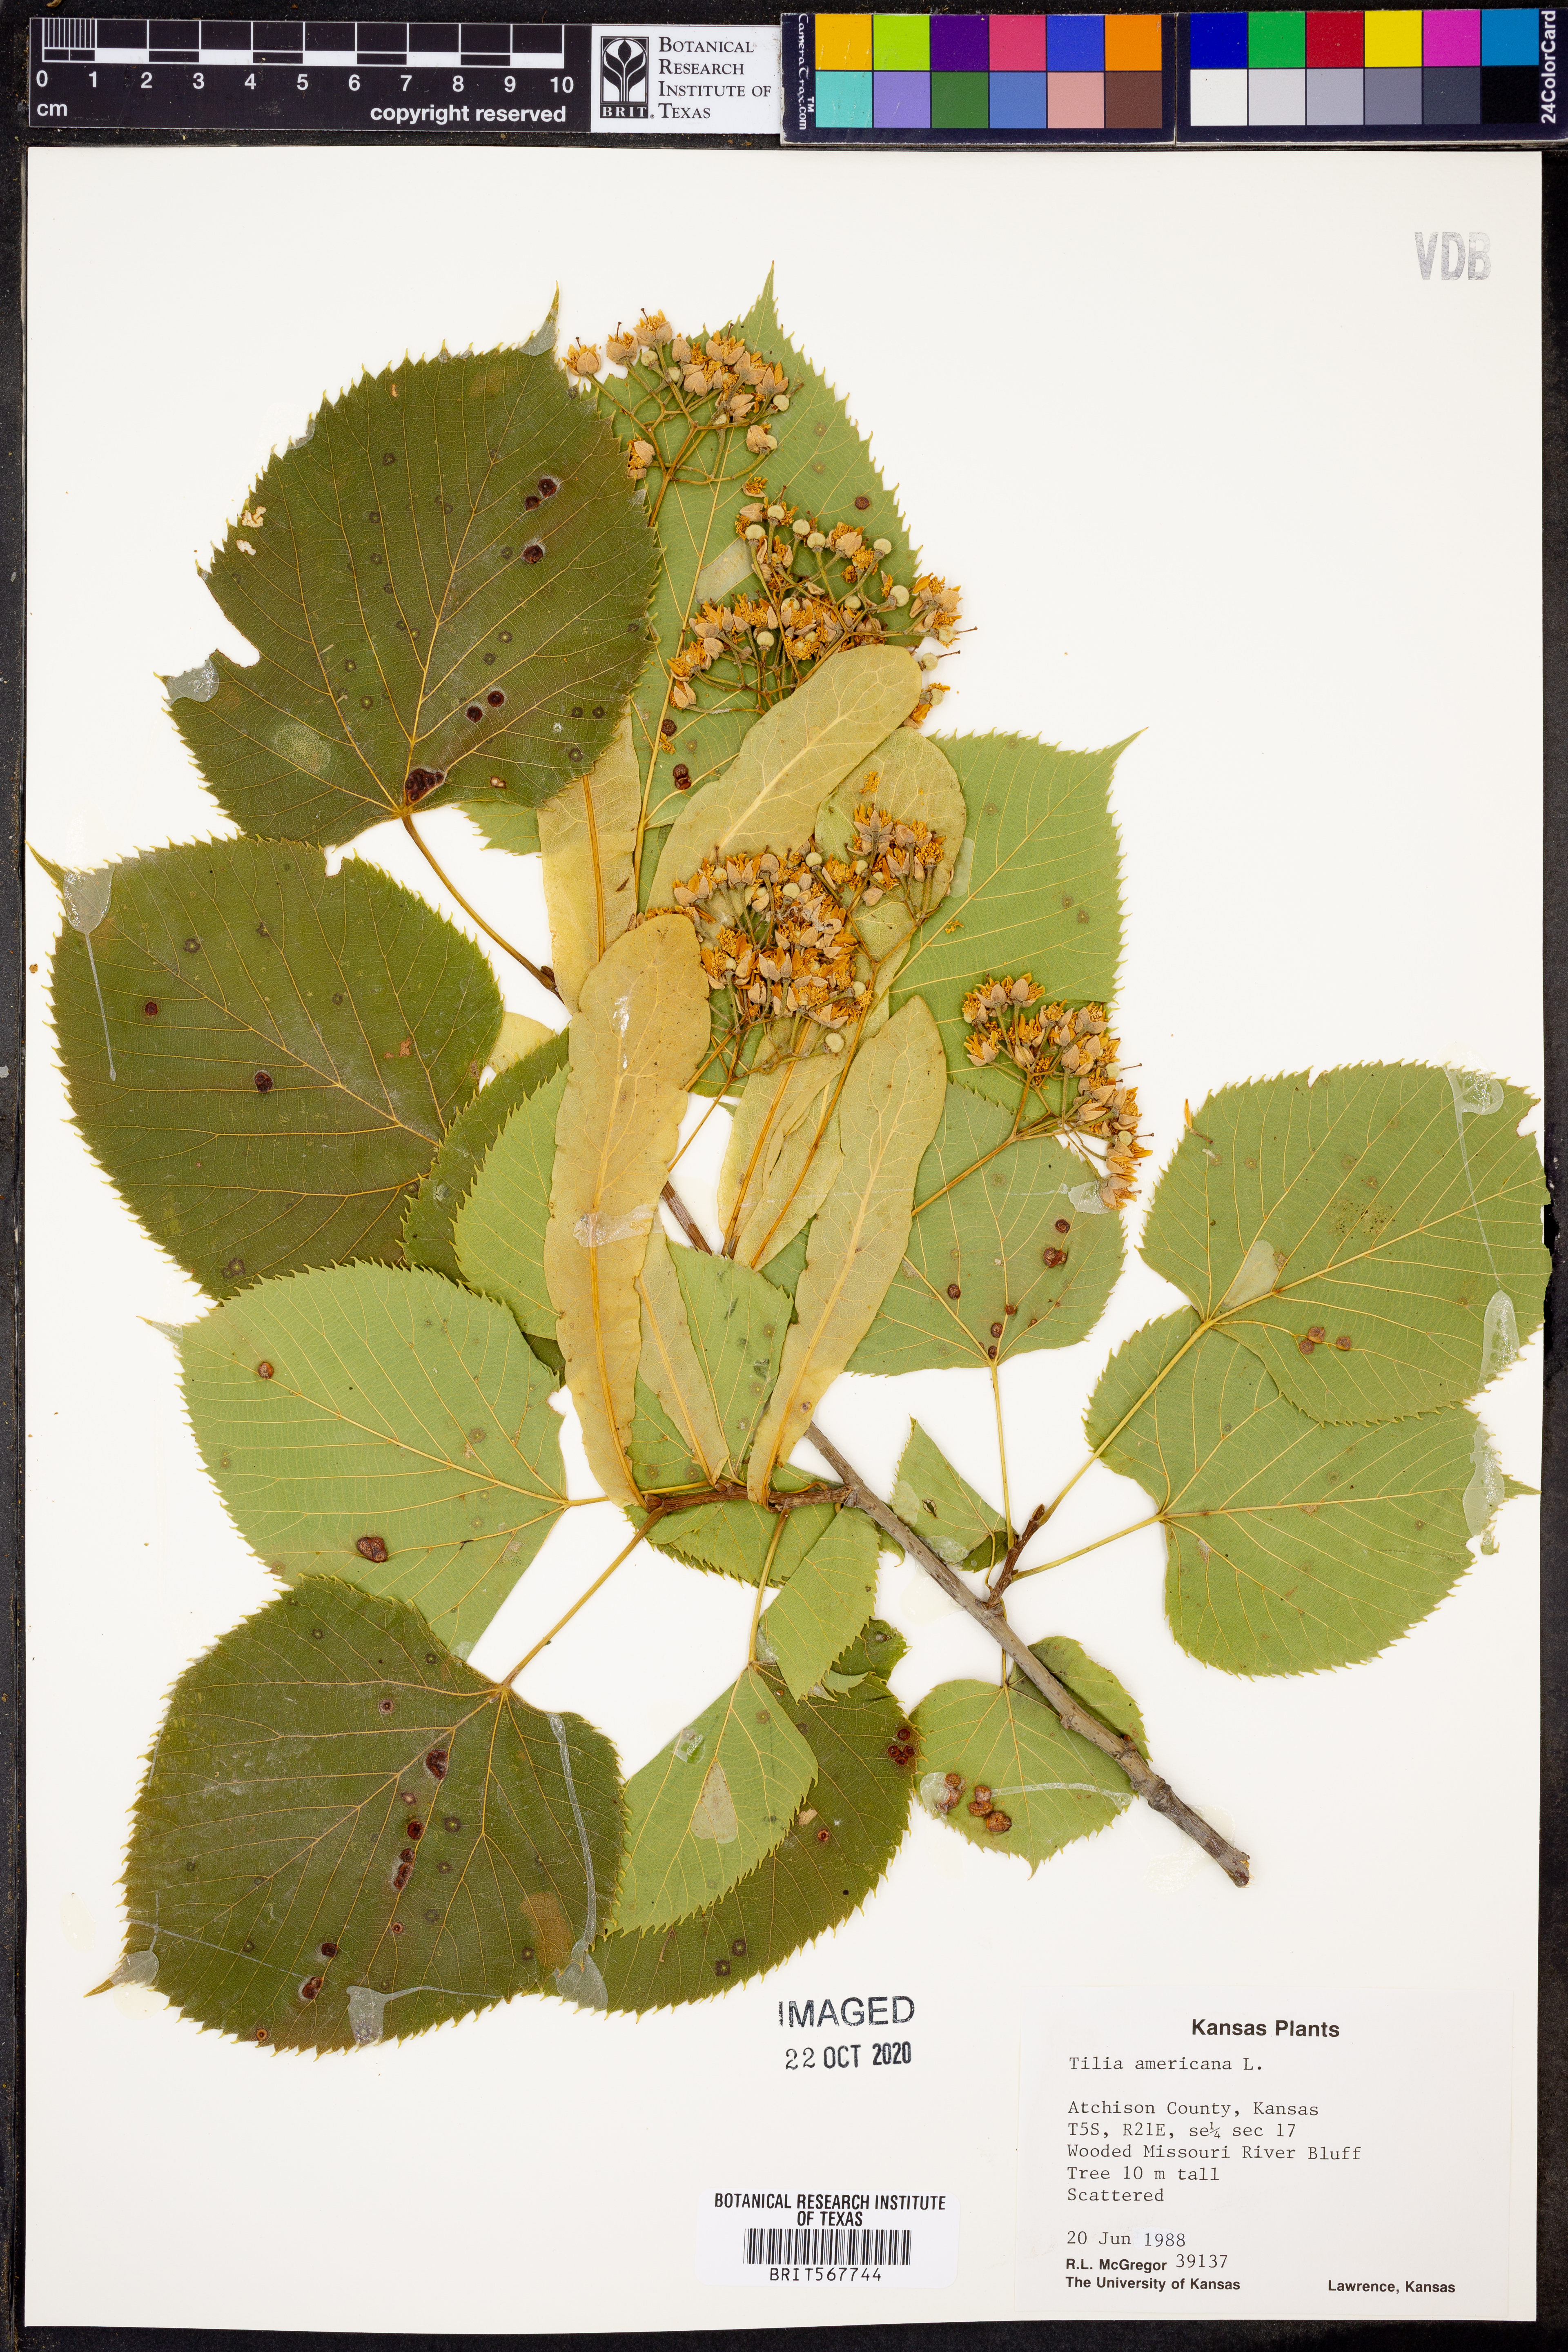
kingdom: Plantae
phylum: Tracheophyta
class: Magnoliopsida
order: Malvales
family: Malvaceae
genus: Tilia
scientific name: Tilia americana
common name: Basswood
